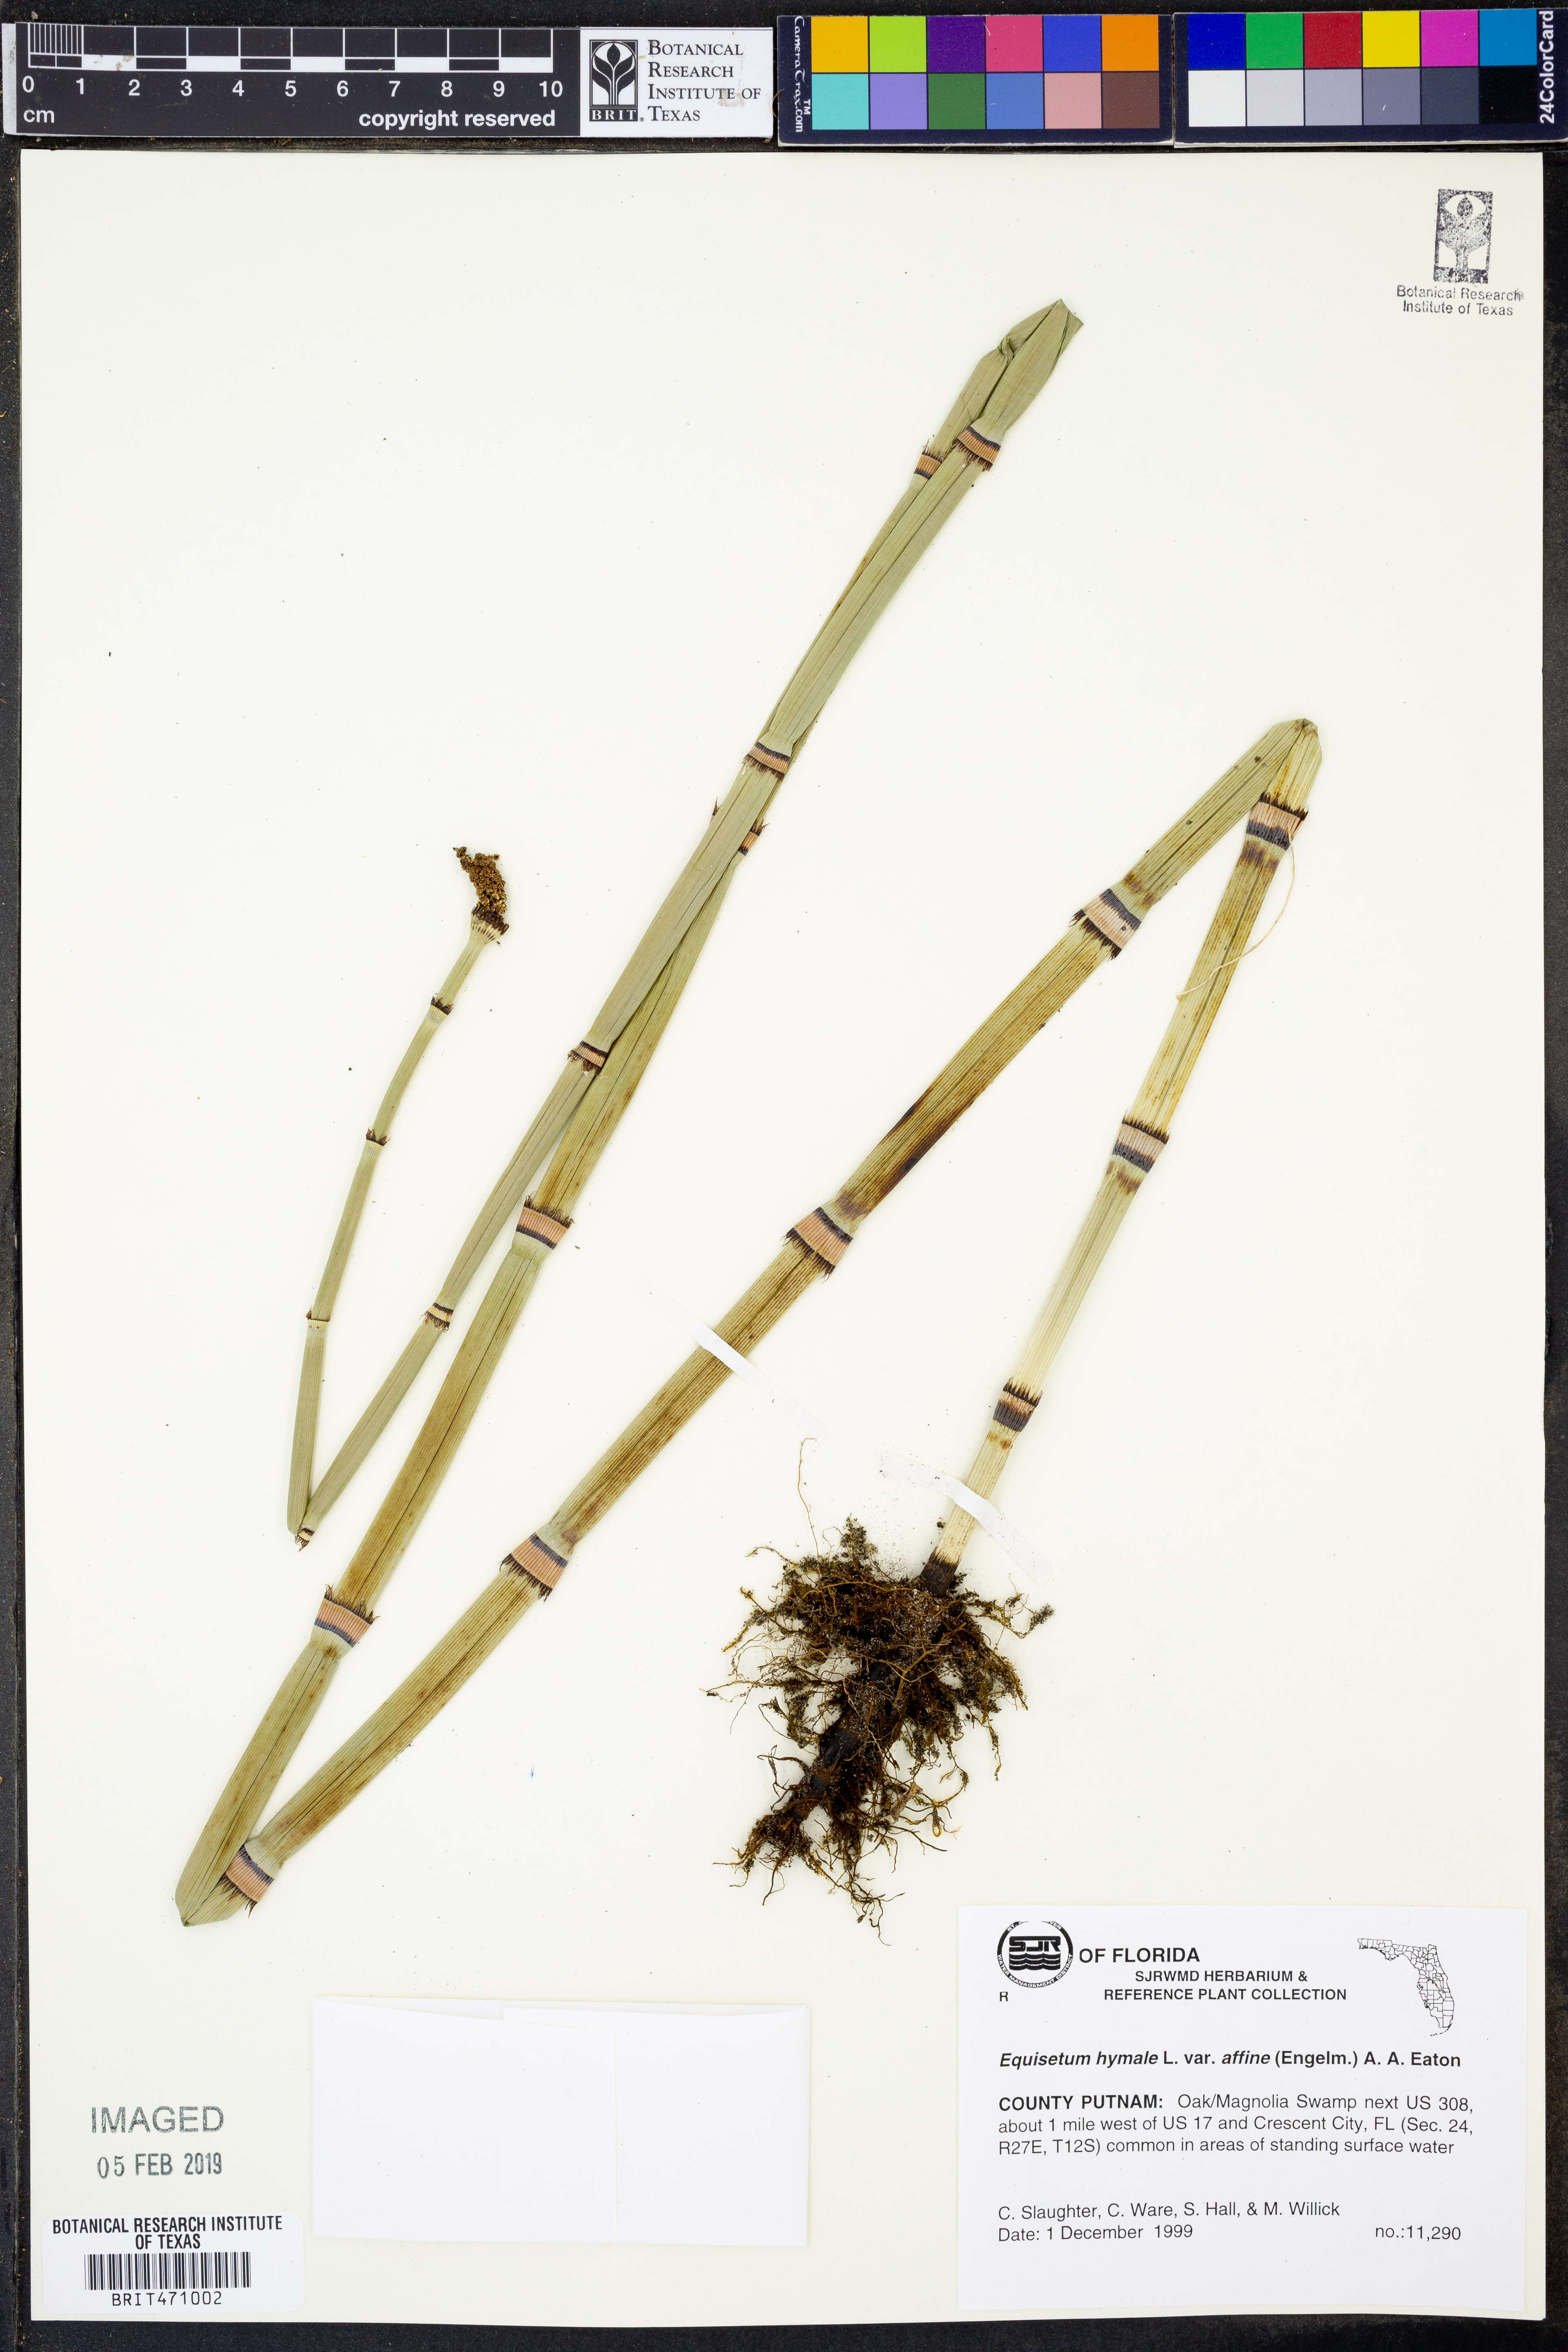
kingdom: Plantae
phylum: Tracheophyta
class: Polypodiopsida
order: Equisetales
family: Equisetaceae
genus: Equisetum
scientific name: Equisetum praealtum
